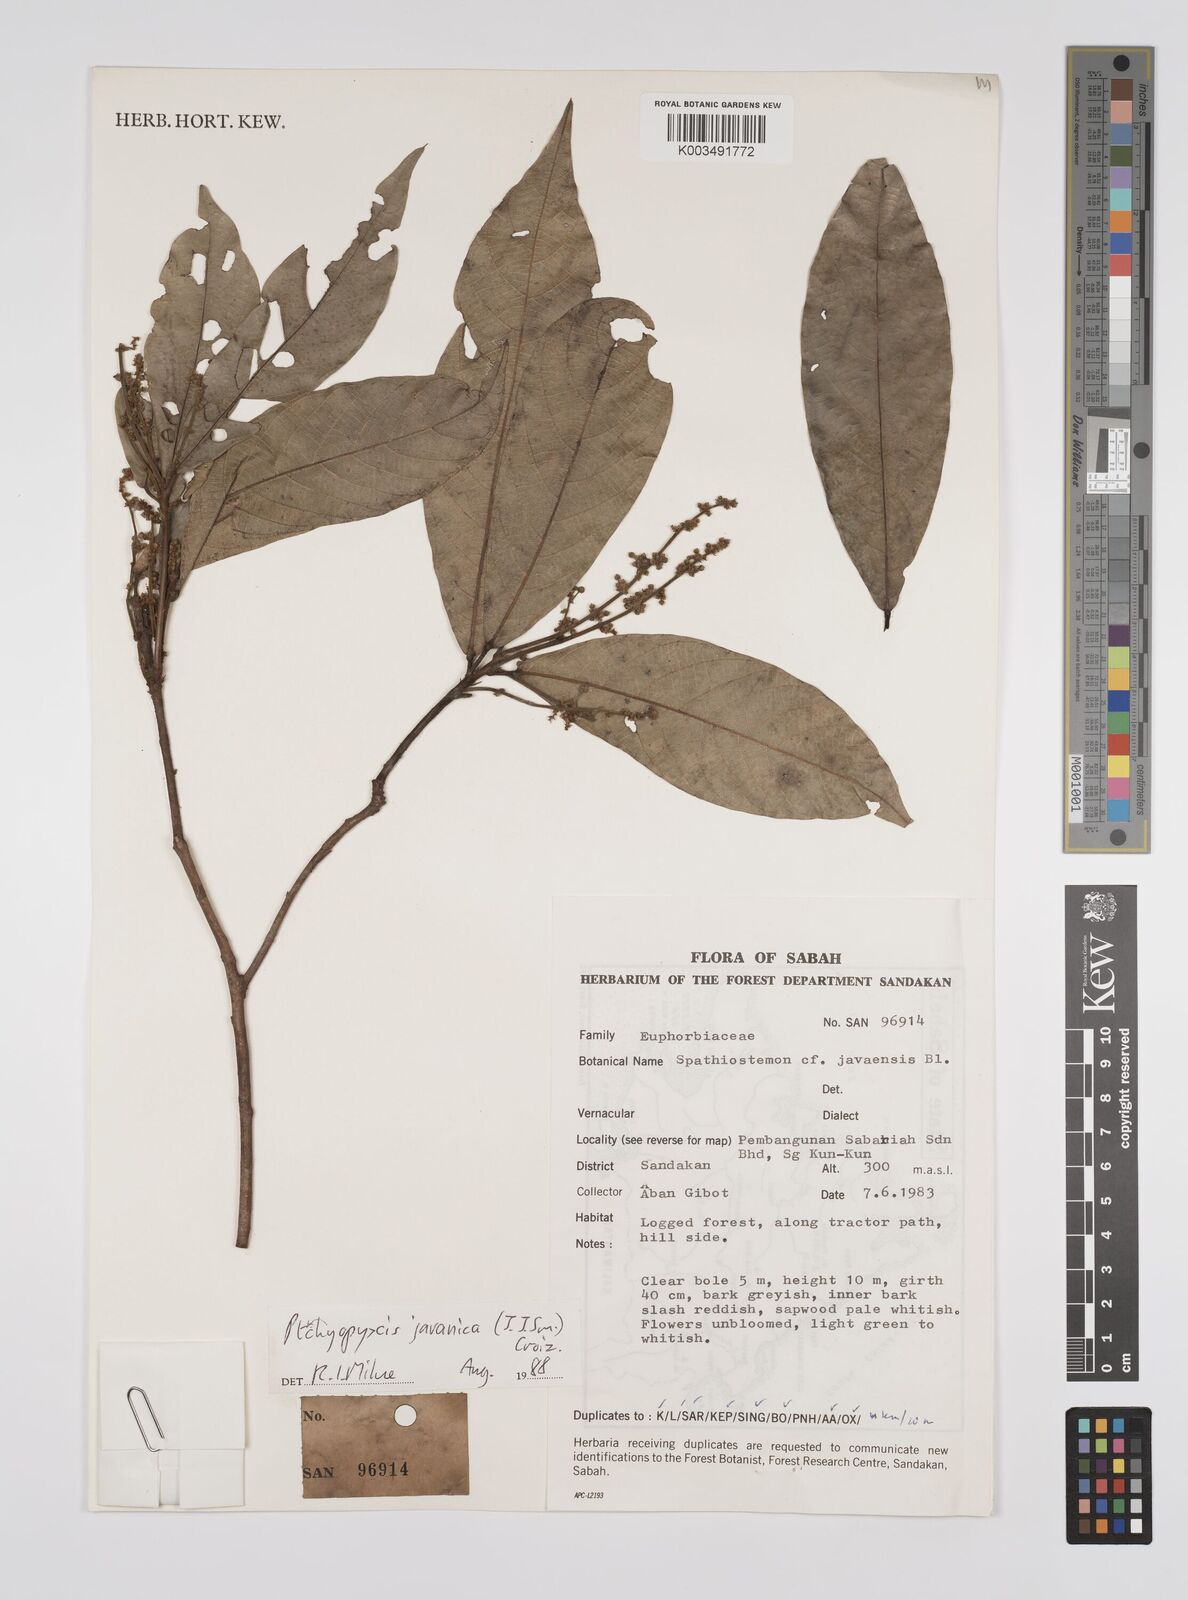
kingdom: Plantae
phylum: Tracheophyta
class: Magnoliopsida
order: Malpighiales
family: Euphorbiaceae
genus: Ptychopyxis
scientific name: Ptychopyxis javanica
